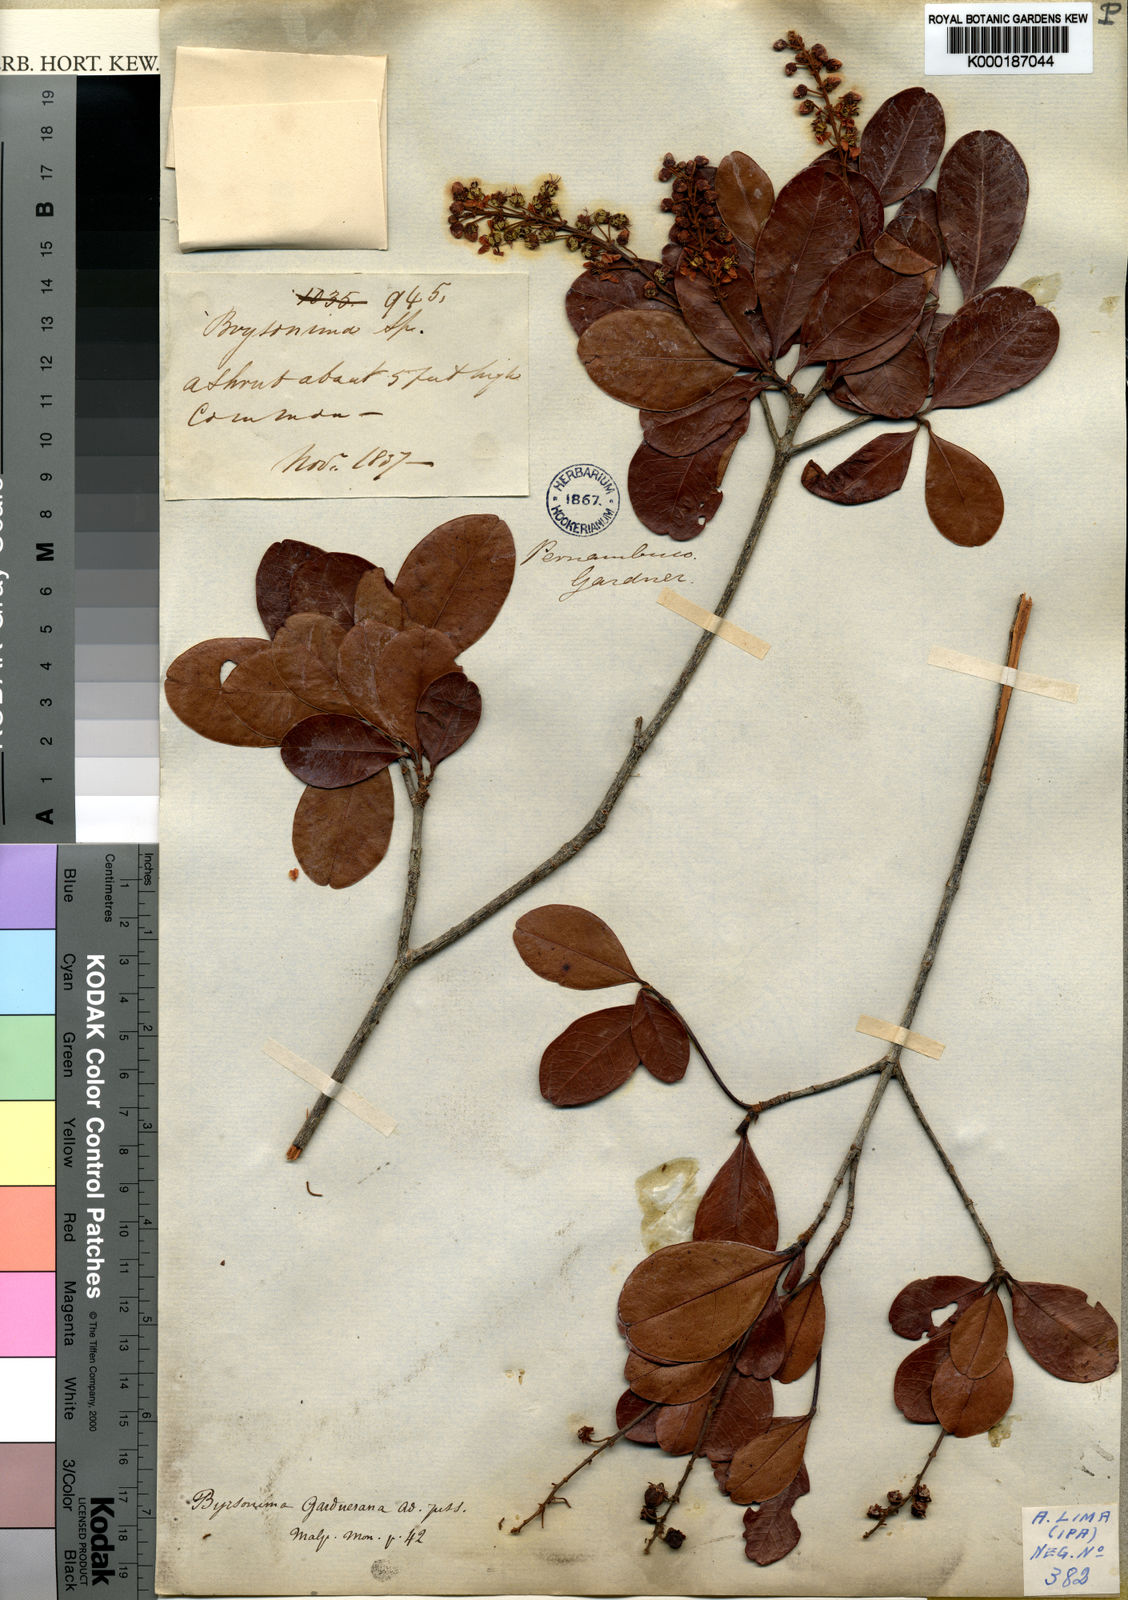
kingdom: Plantae
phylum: Tracheophyta
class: Magnoliopsida
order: Malpighiales
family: Malpighiaceae
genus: Byrsonima
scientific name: Byrsonima gardneriana
